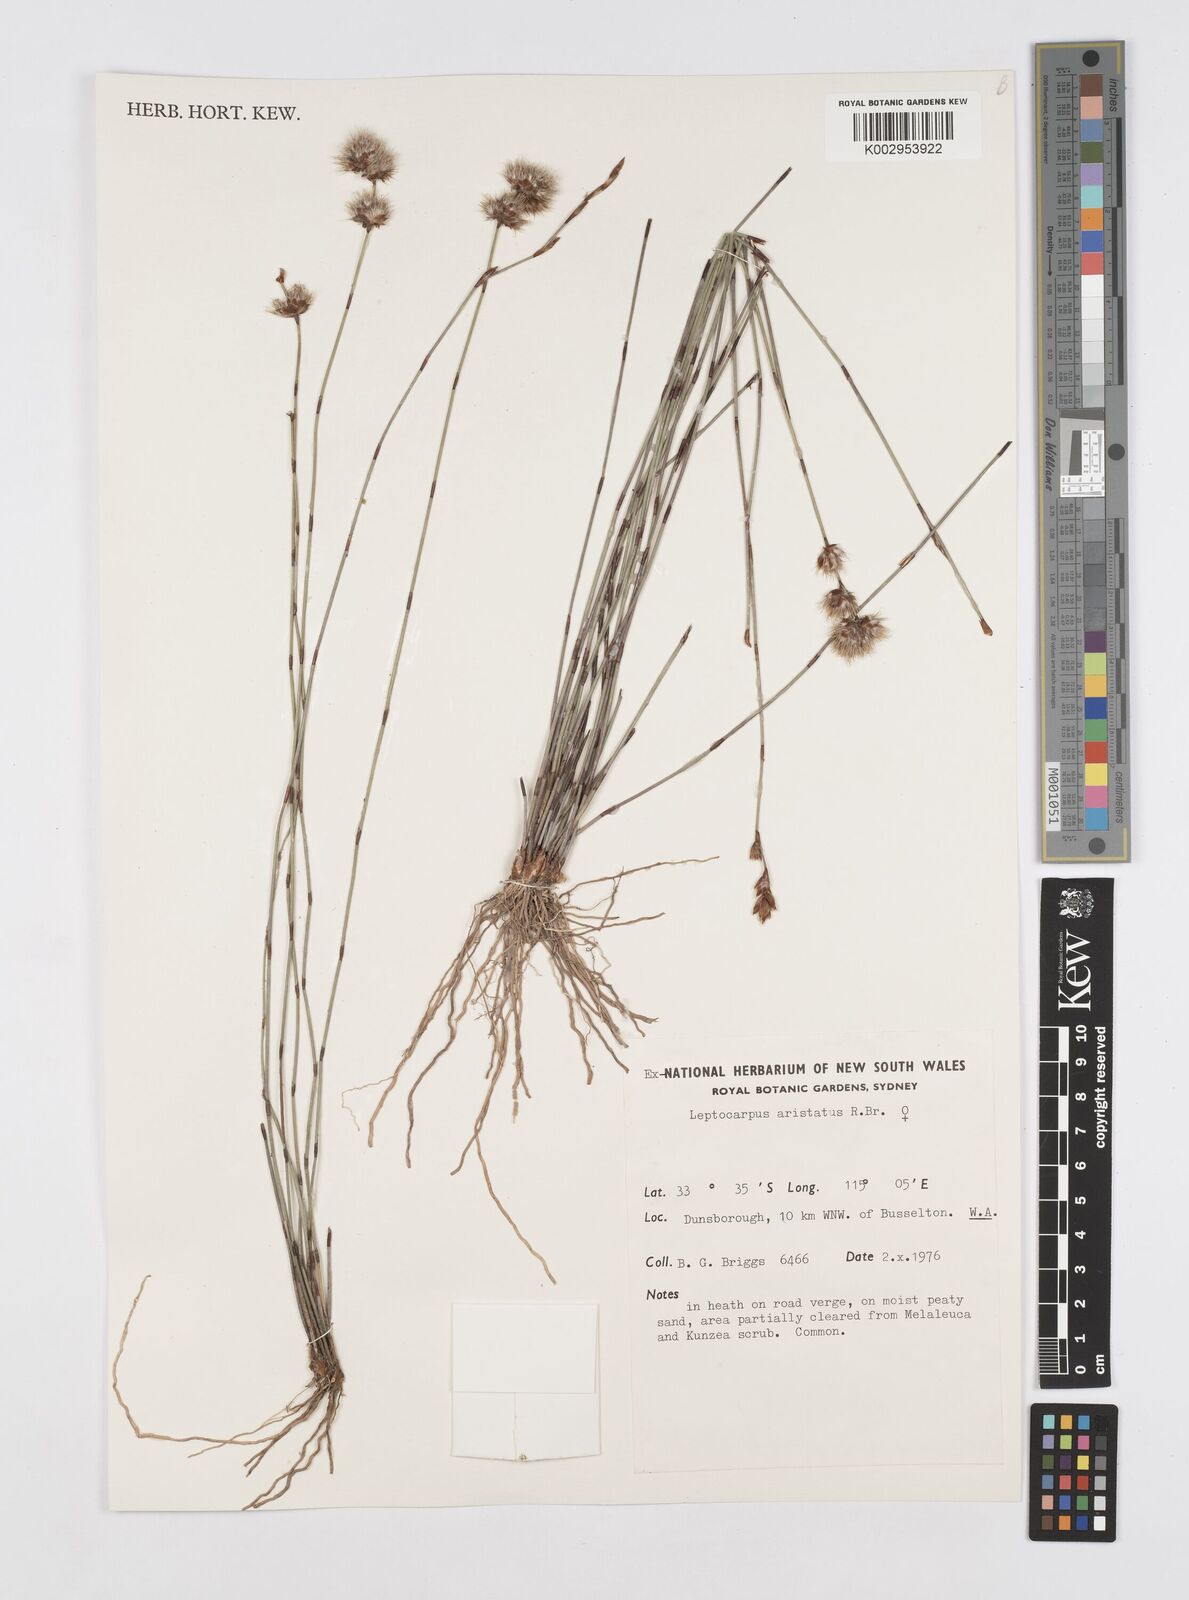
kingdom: Plantae
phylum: Tracheophyta
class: Liliopsida
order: Poales
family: Restionaceae
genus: Chaetanthus
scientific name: Chaetanthus aristatus
